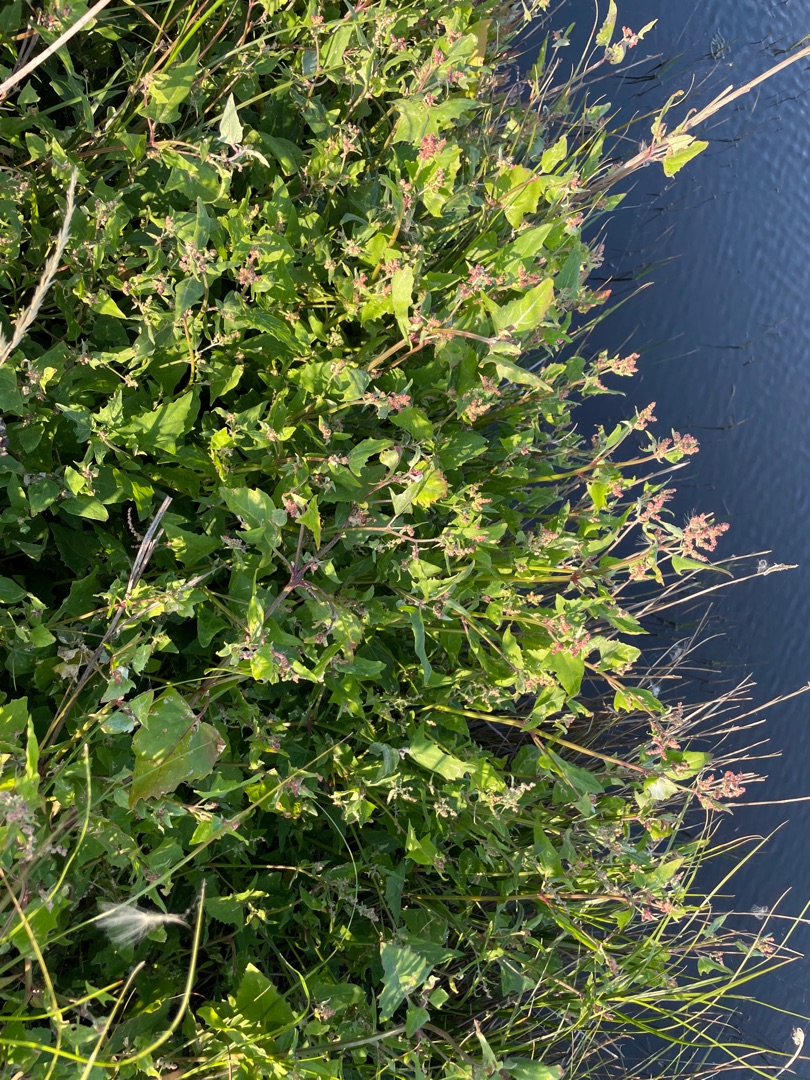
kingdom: Plantae
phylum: Tracheophyta
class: Magnoliopsida
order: Caryophyllales
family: Amaranthaceae
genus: Atriplex
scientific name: Atriplex prostrata
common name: Spyd-mælde
